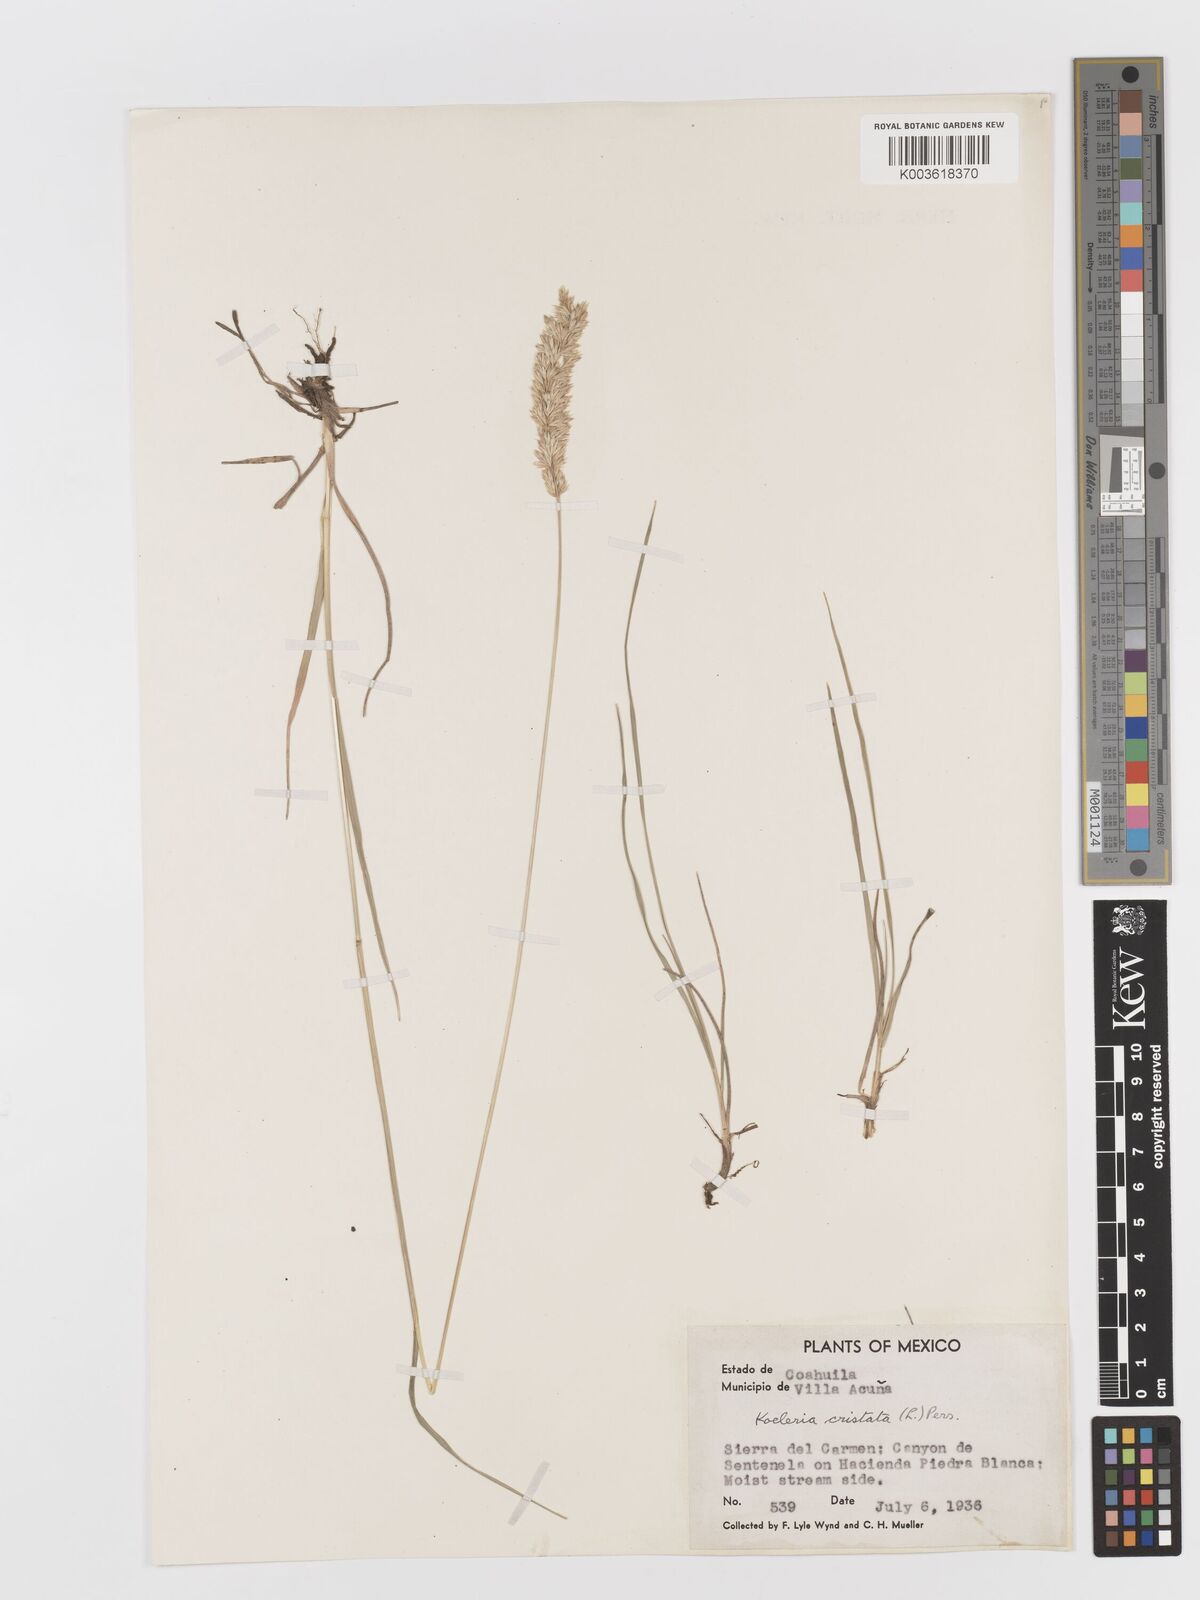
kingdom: Plantae
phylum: Tracheophyta
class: Liliopsida
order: Poales
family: Poaceae
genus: Koeleria
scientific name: Koeleria pyramidata
